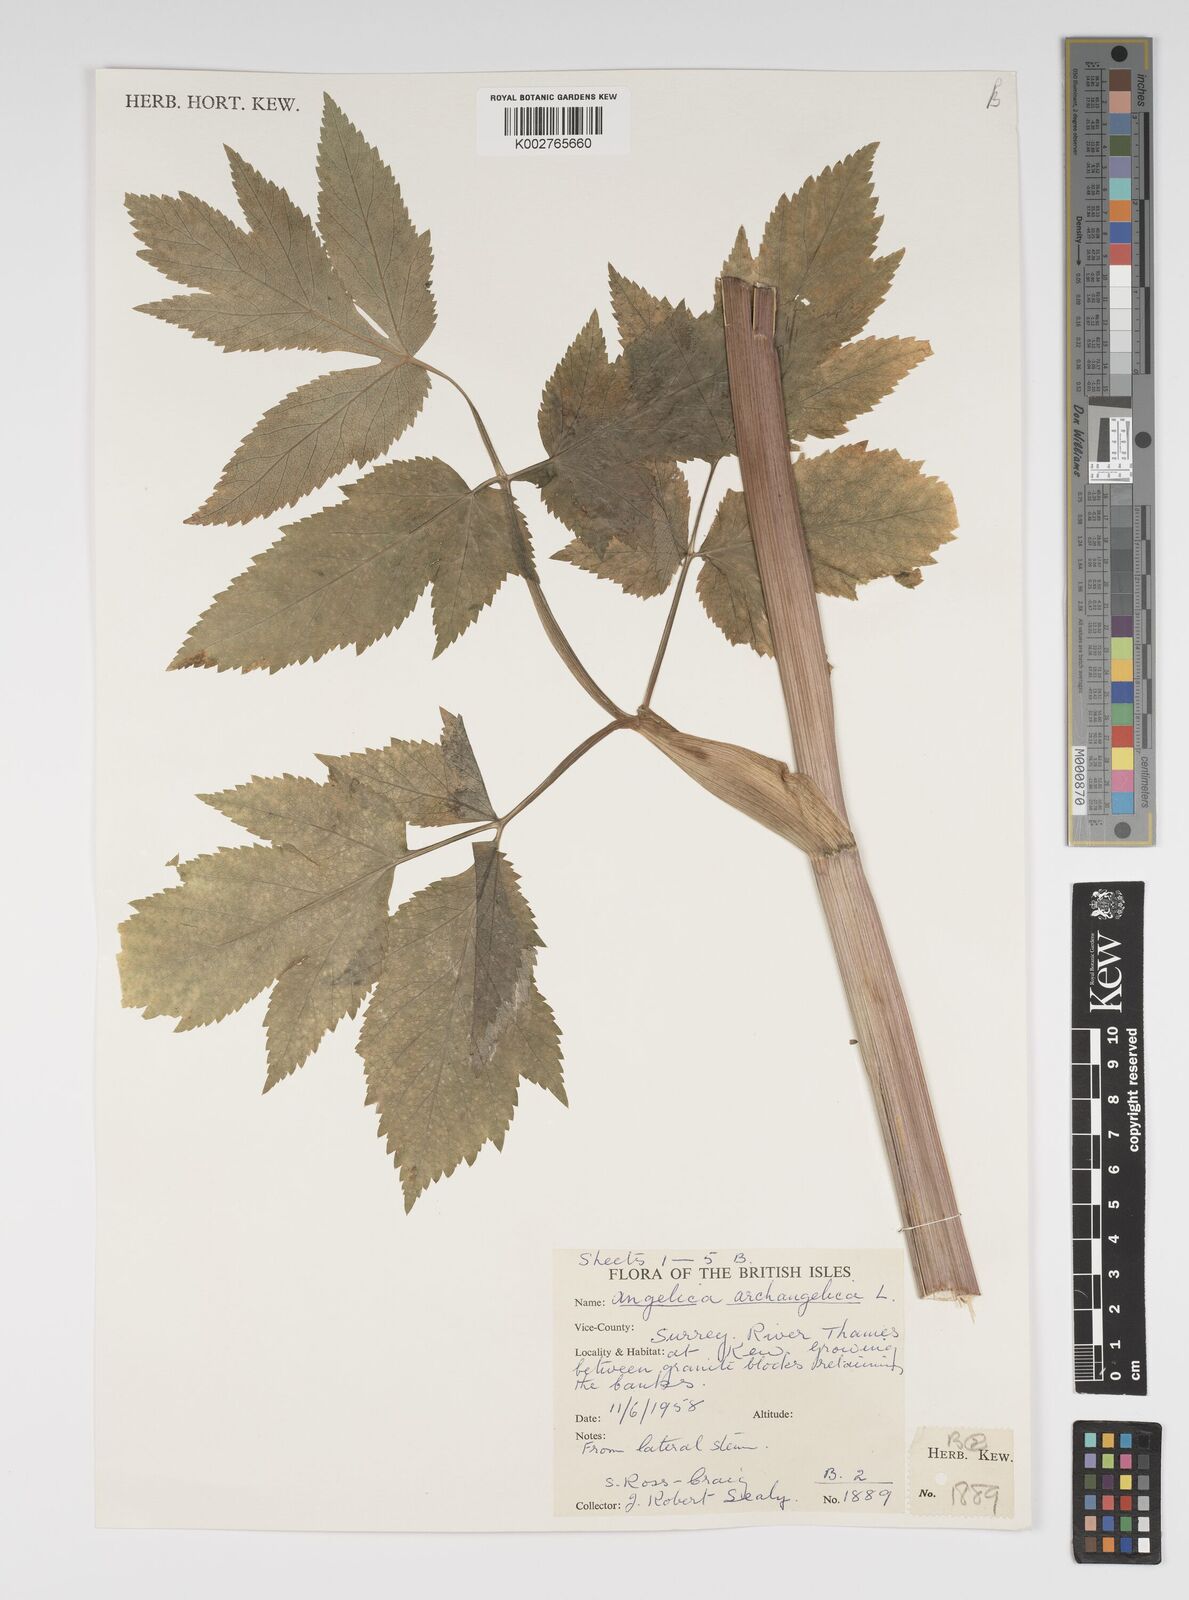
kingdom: Plantae
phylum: Tracheophyta
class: Magnoliopsida
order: Apiales
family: Apiaceae
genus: Angelica
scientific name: Angelica archangelica
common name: Garden angelica
